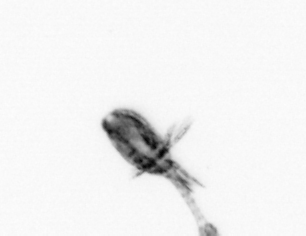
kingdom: Animalia
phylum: Arthropoda
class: Copepoda
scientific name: Copepoda
